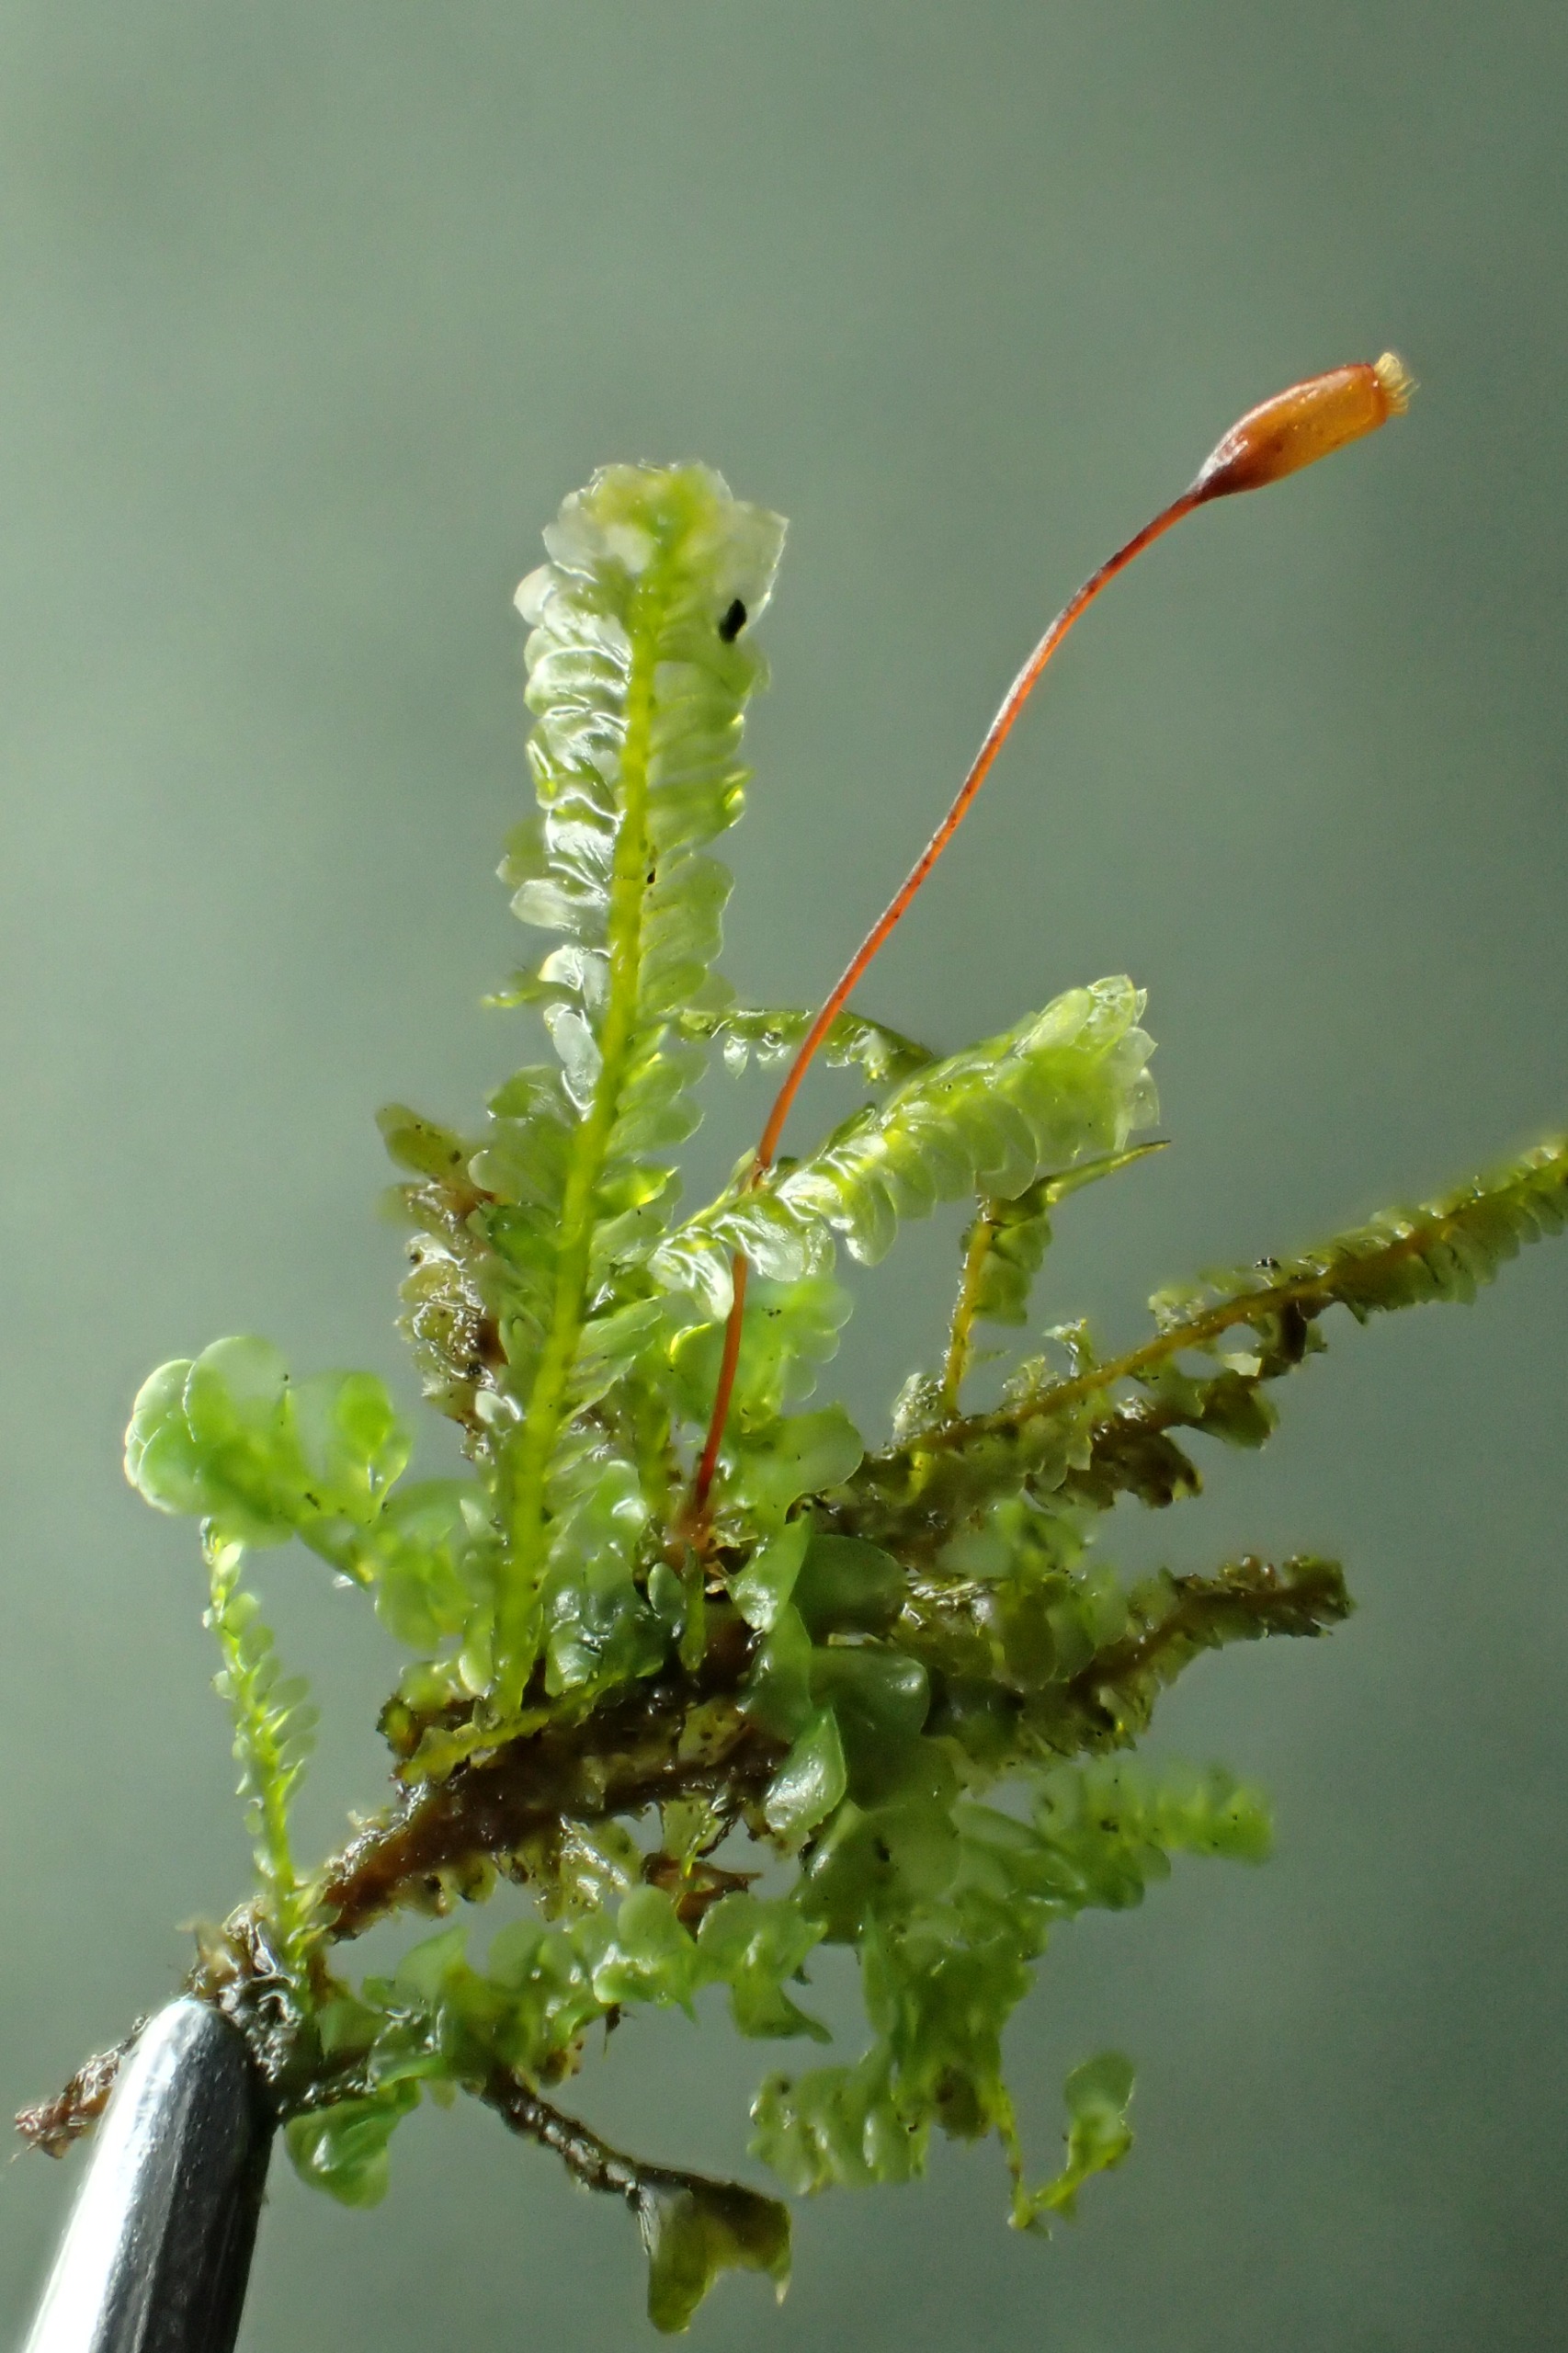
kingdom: Plantae
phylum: Bryophyta
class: Bryopsida
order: Hypnales
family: Neckeraceae
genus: Homalia
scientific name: Homalia trichomanoides
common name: Skov-tungemos
